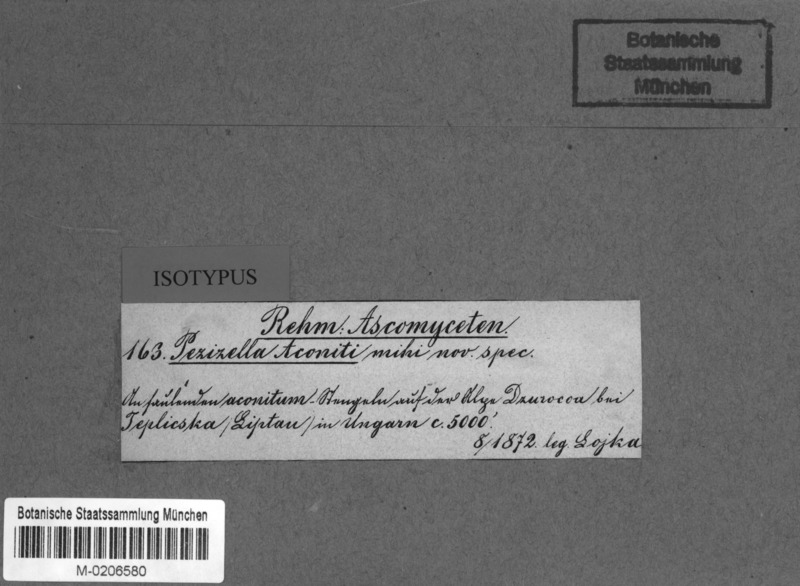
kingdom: Fungi
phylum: Ascomycota
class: Leotiomycetes
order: Helotiales
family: Hyaloscyphaceae
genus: Cistella
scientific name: Cistella aconiti
